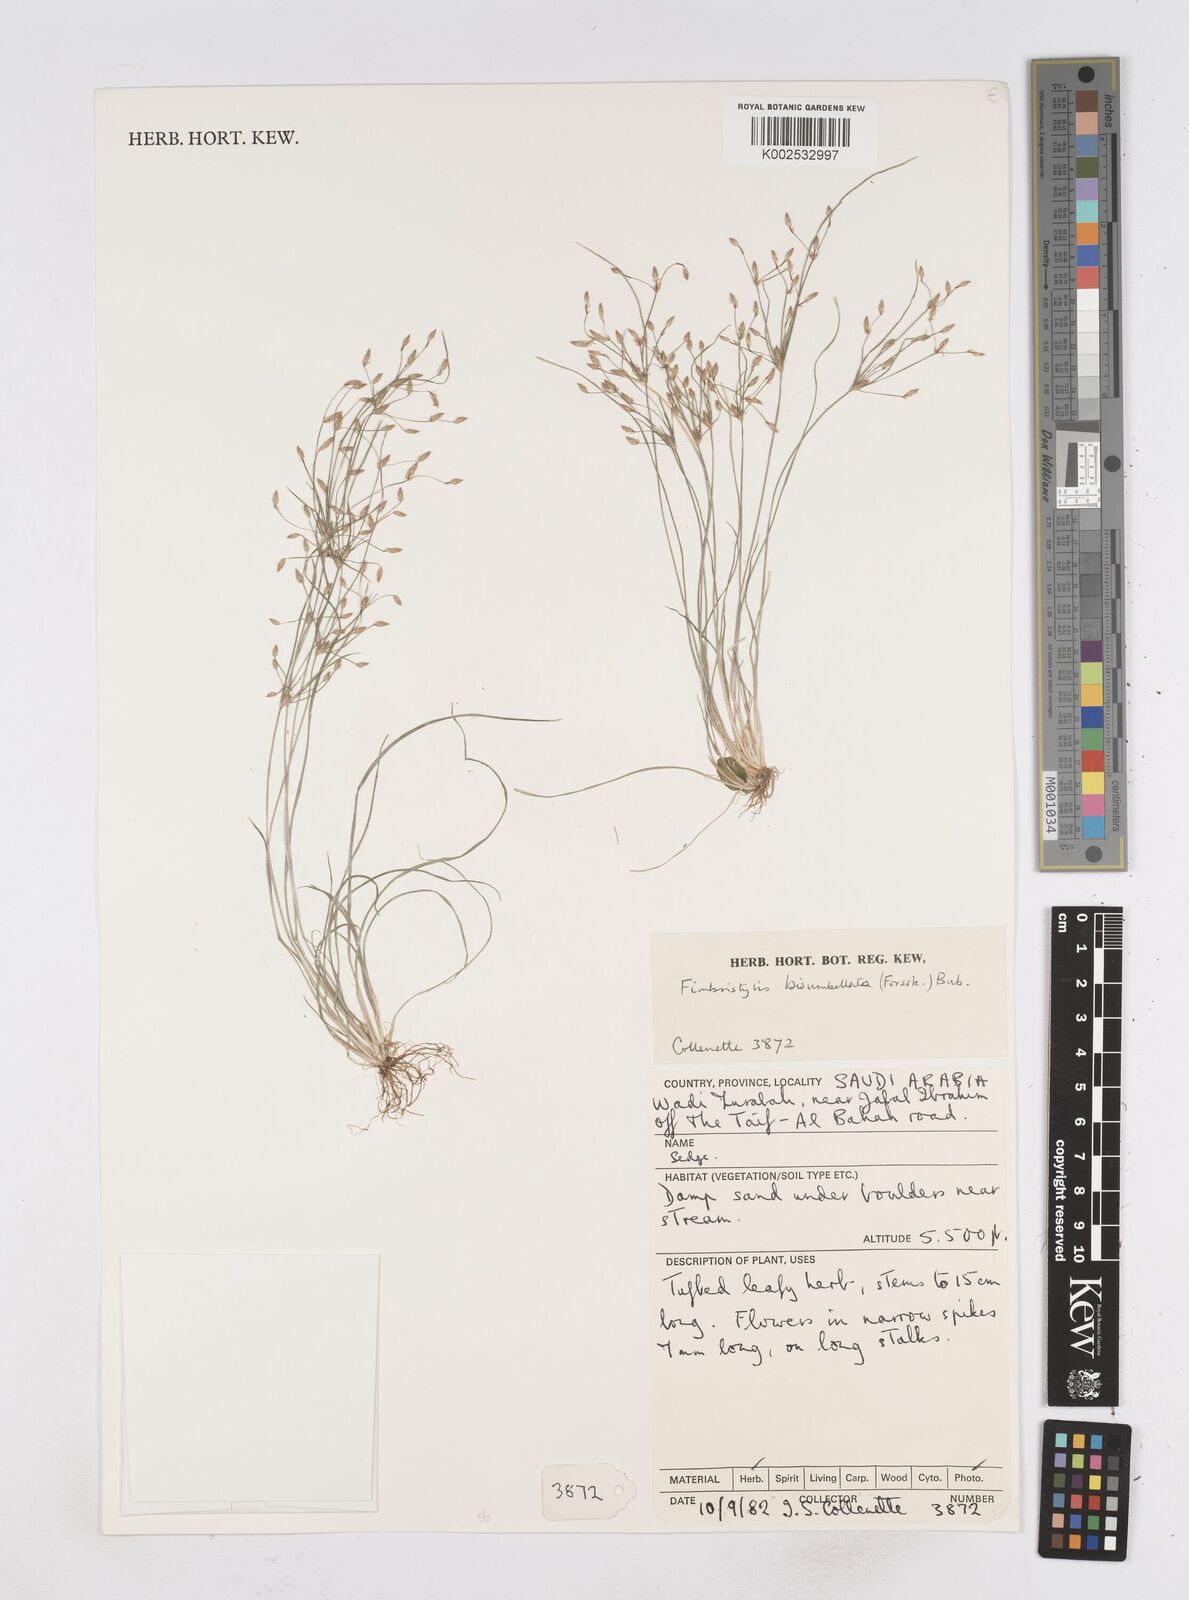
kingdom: Plantae
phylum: Tracheophyta
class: Liliopsida
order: Poales
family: Cyperaceae
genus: Fimbristylis
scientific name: Fimbristylis bisumbellata
